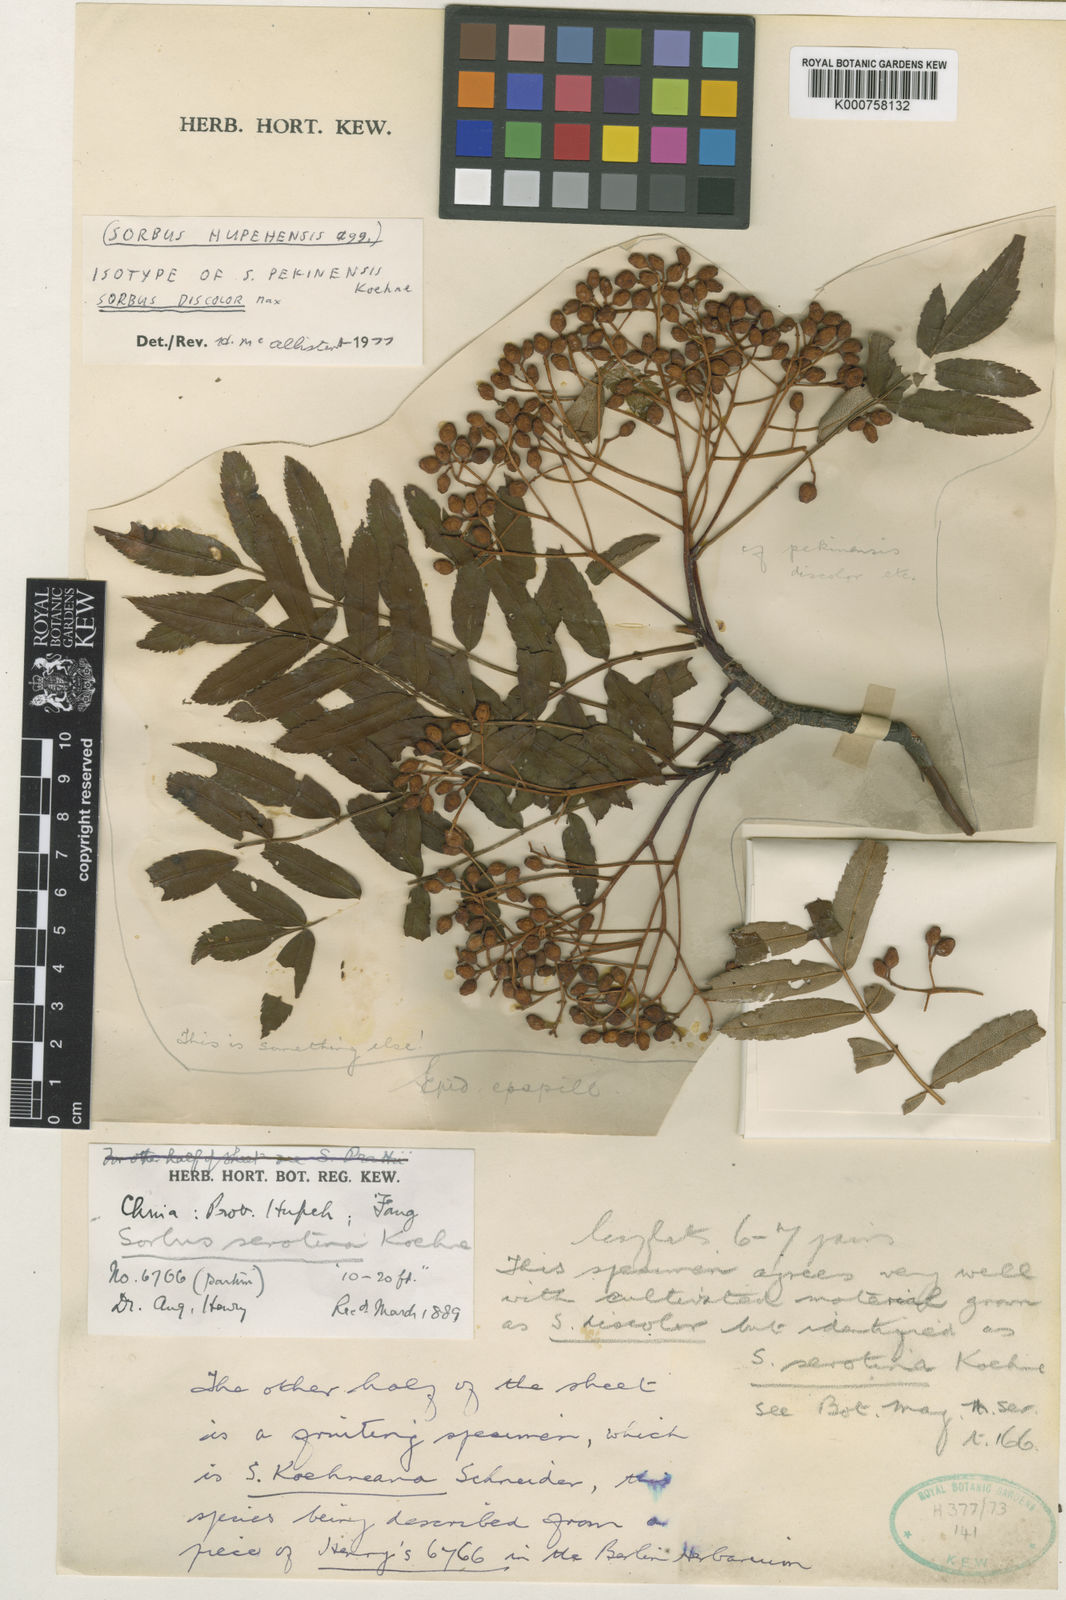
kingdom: Plantae
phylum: Tracheophyta
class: Magnoliopsida
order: Rosales
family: Rosaceae
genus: Sorbus
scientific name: Sorbus discolor
